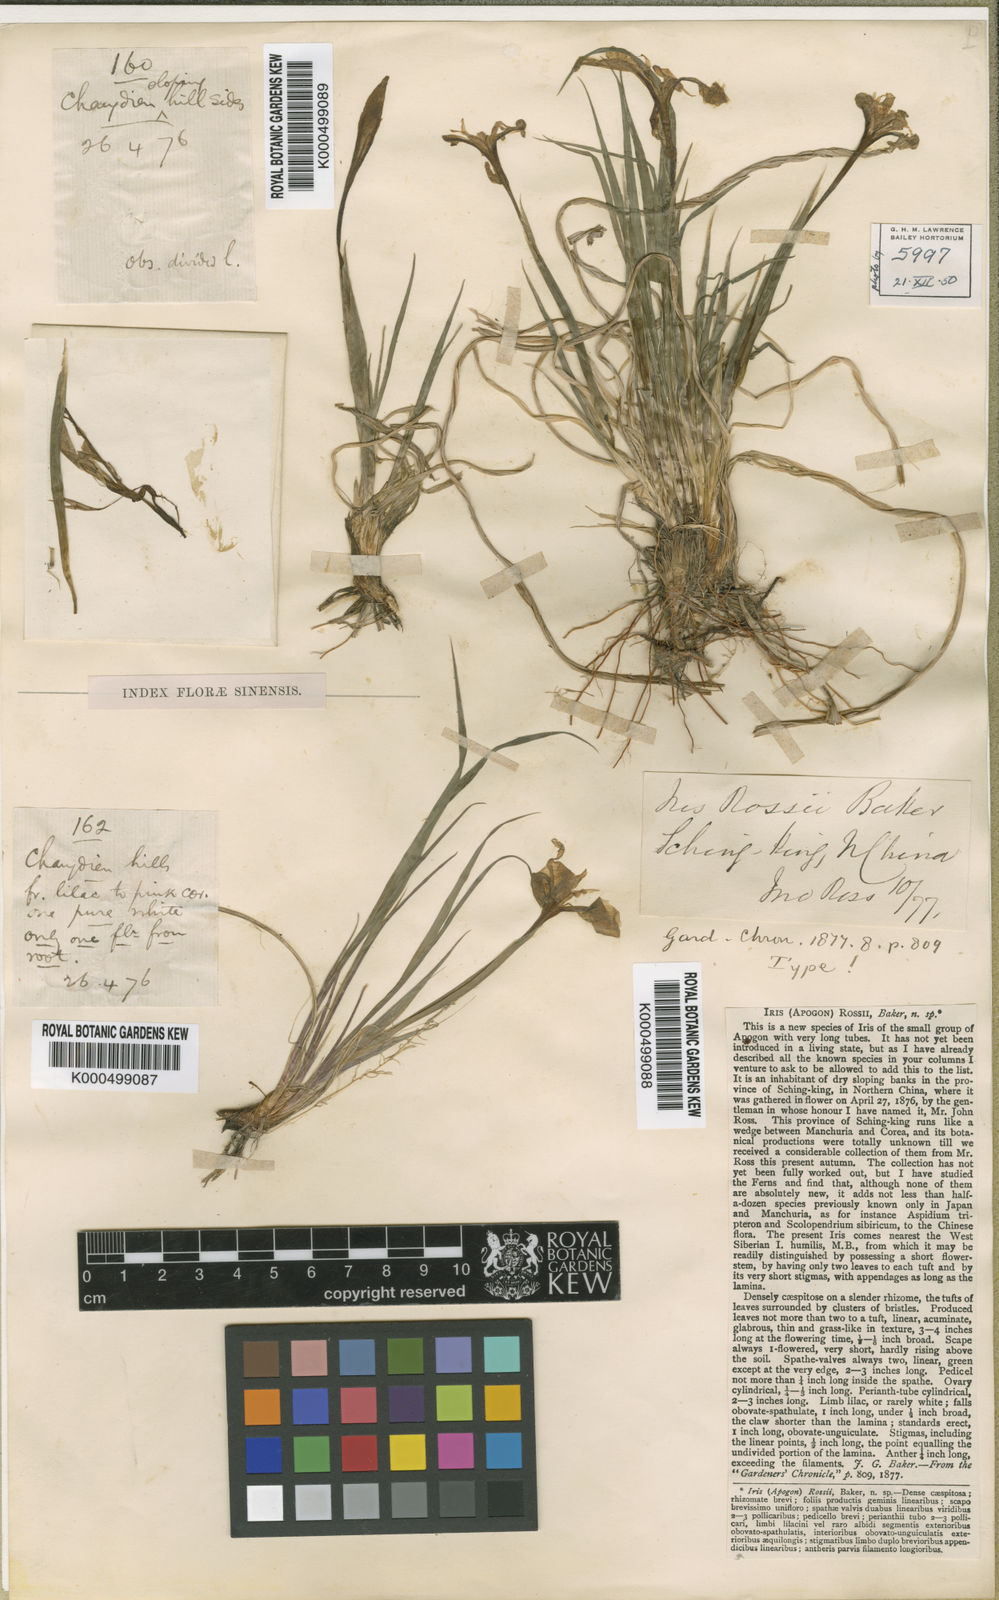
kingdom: Plantae
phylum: Tracheophyta
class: Liliopsida
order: Asparagales
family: Iridaceae
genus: Iris
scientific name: Iris rossii
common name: Long-tail iris
